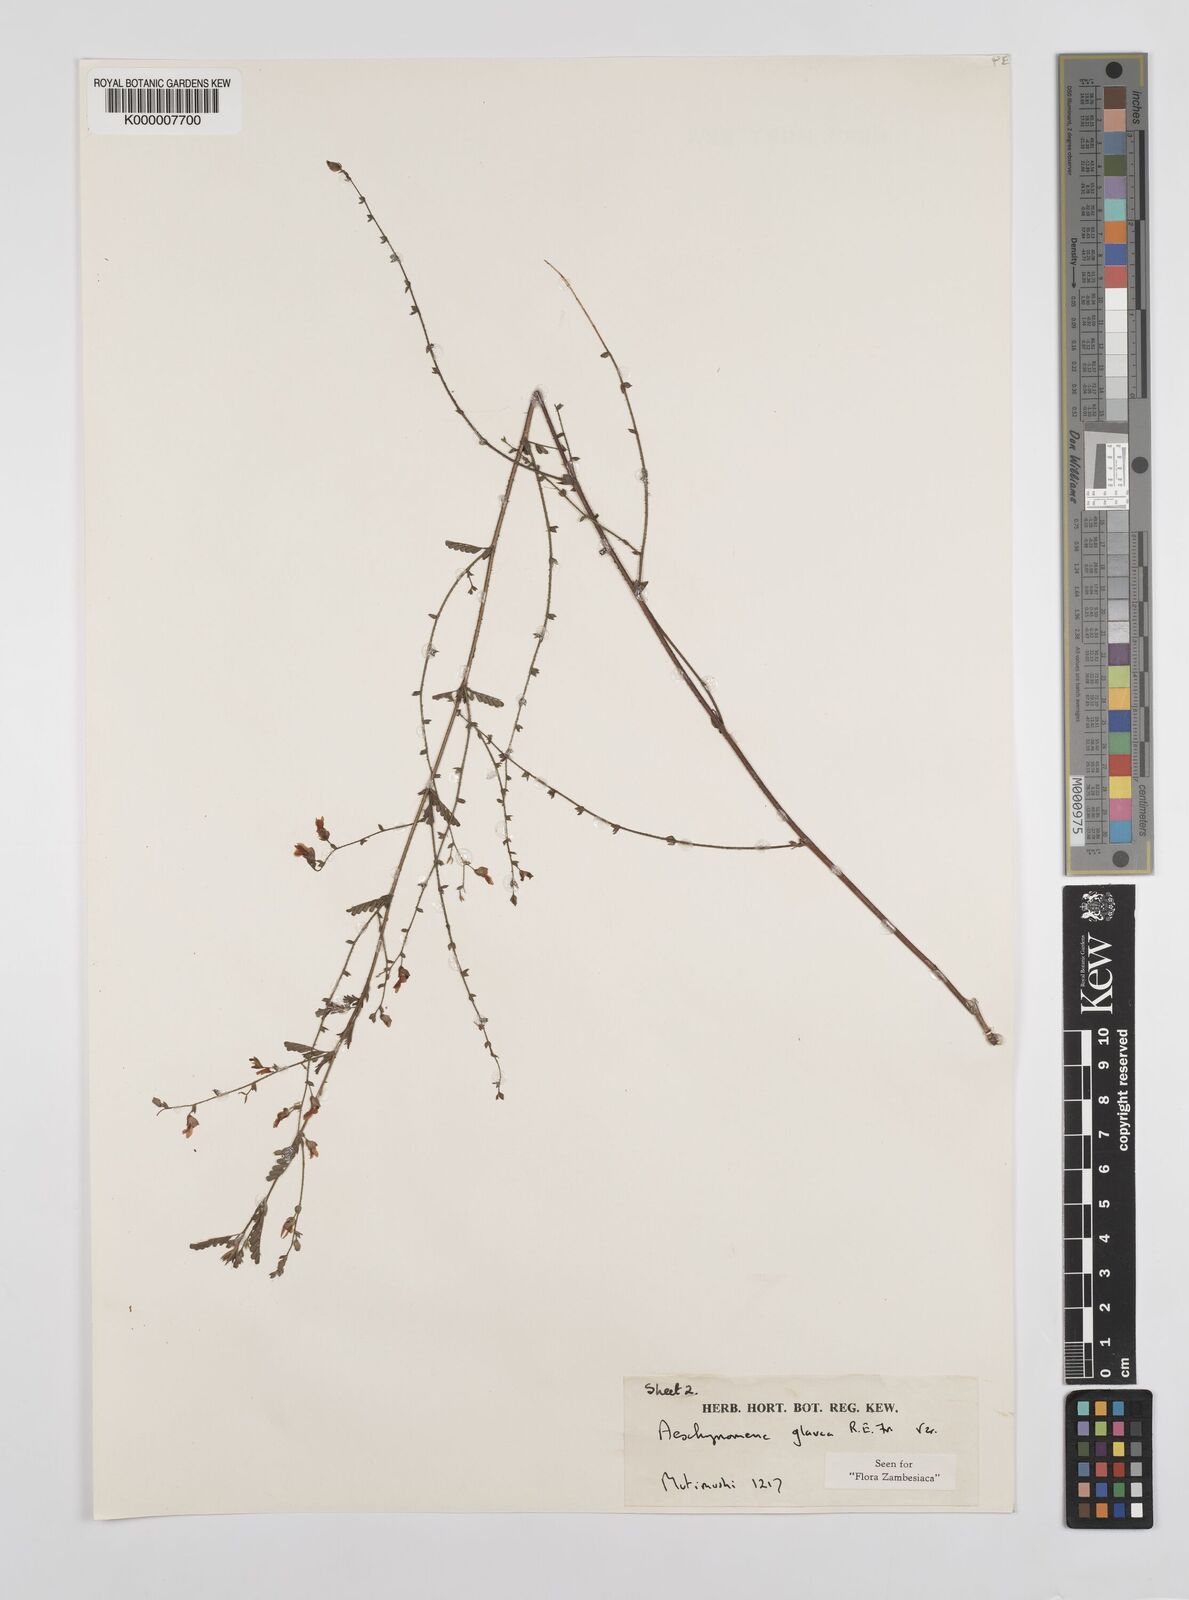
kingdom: Plantae
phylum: Tracheophyta
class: Magnoliopsida
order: Fabales
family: Fabaceae
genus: Aeschynomene
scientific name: Aeschynomene glauca
